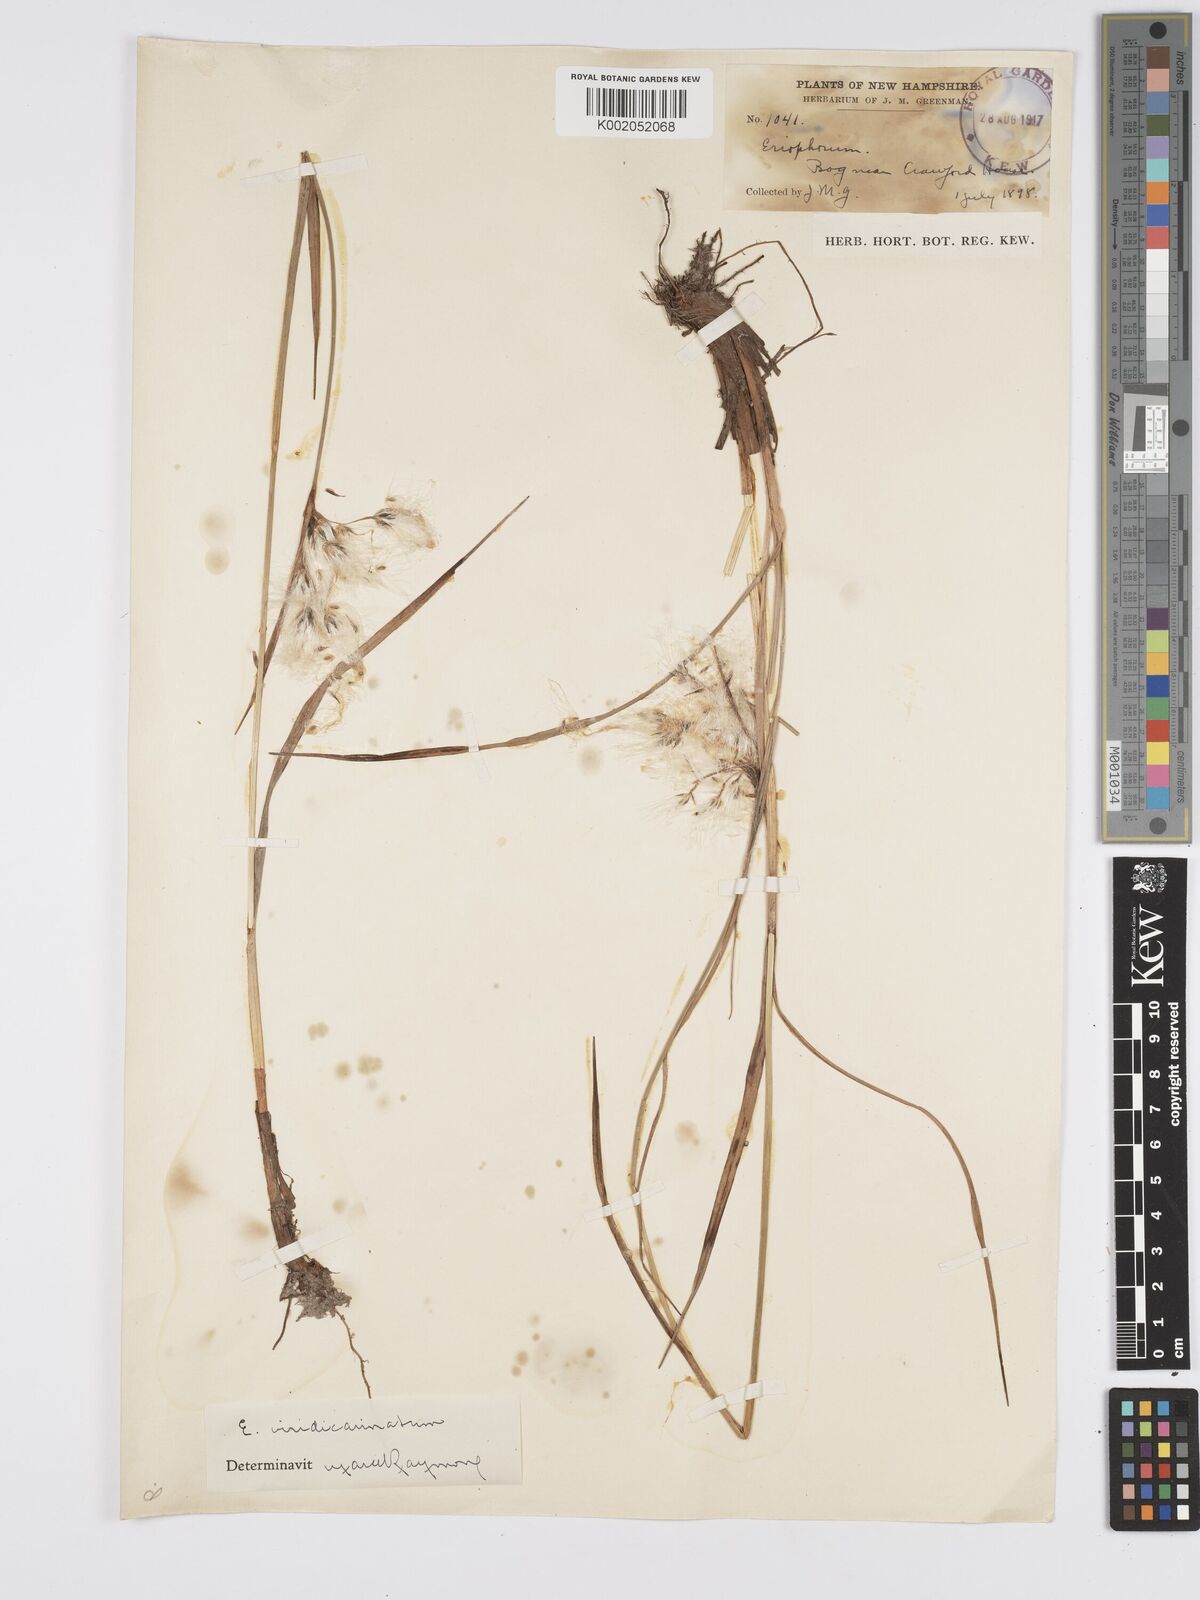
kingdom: Plantae
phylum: Tracheophyta
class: Liliopsida
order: Poales
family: Cyperaceae
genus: Eriophorum
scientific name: Eriophorum
